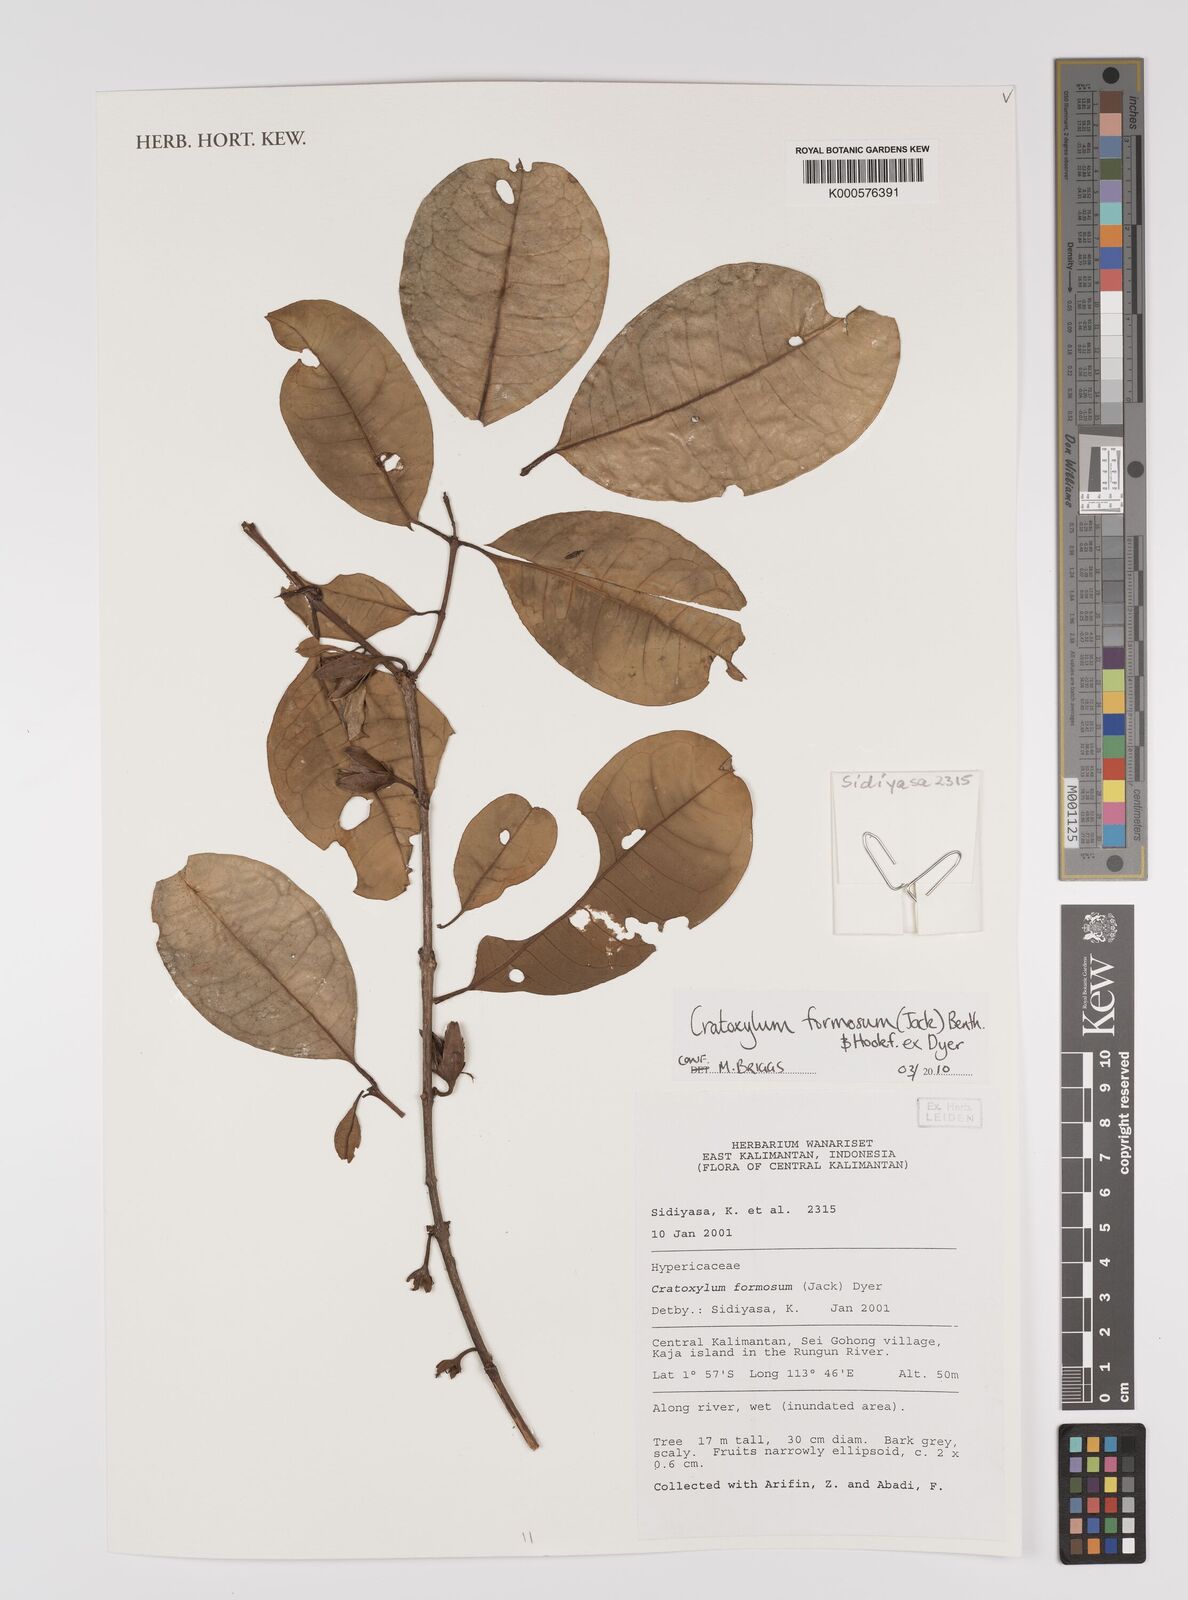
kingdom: Plantae
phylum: Tracheophyta
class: Magnoliopsida
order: Malpighiales
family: Hypericaceae
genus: Cratoxylum
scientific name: Cratoxylum formosum
